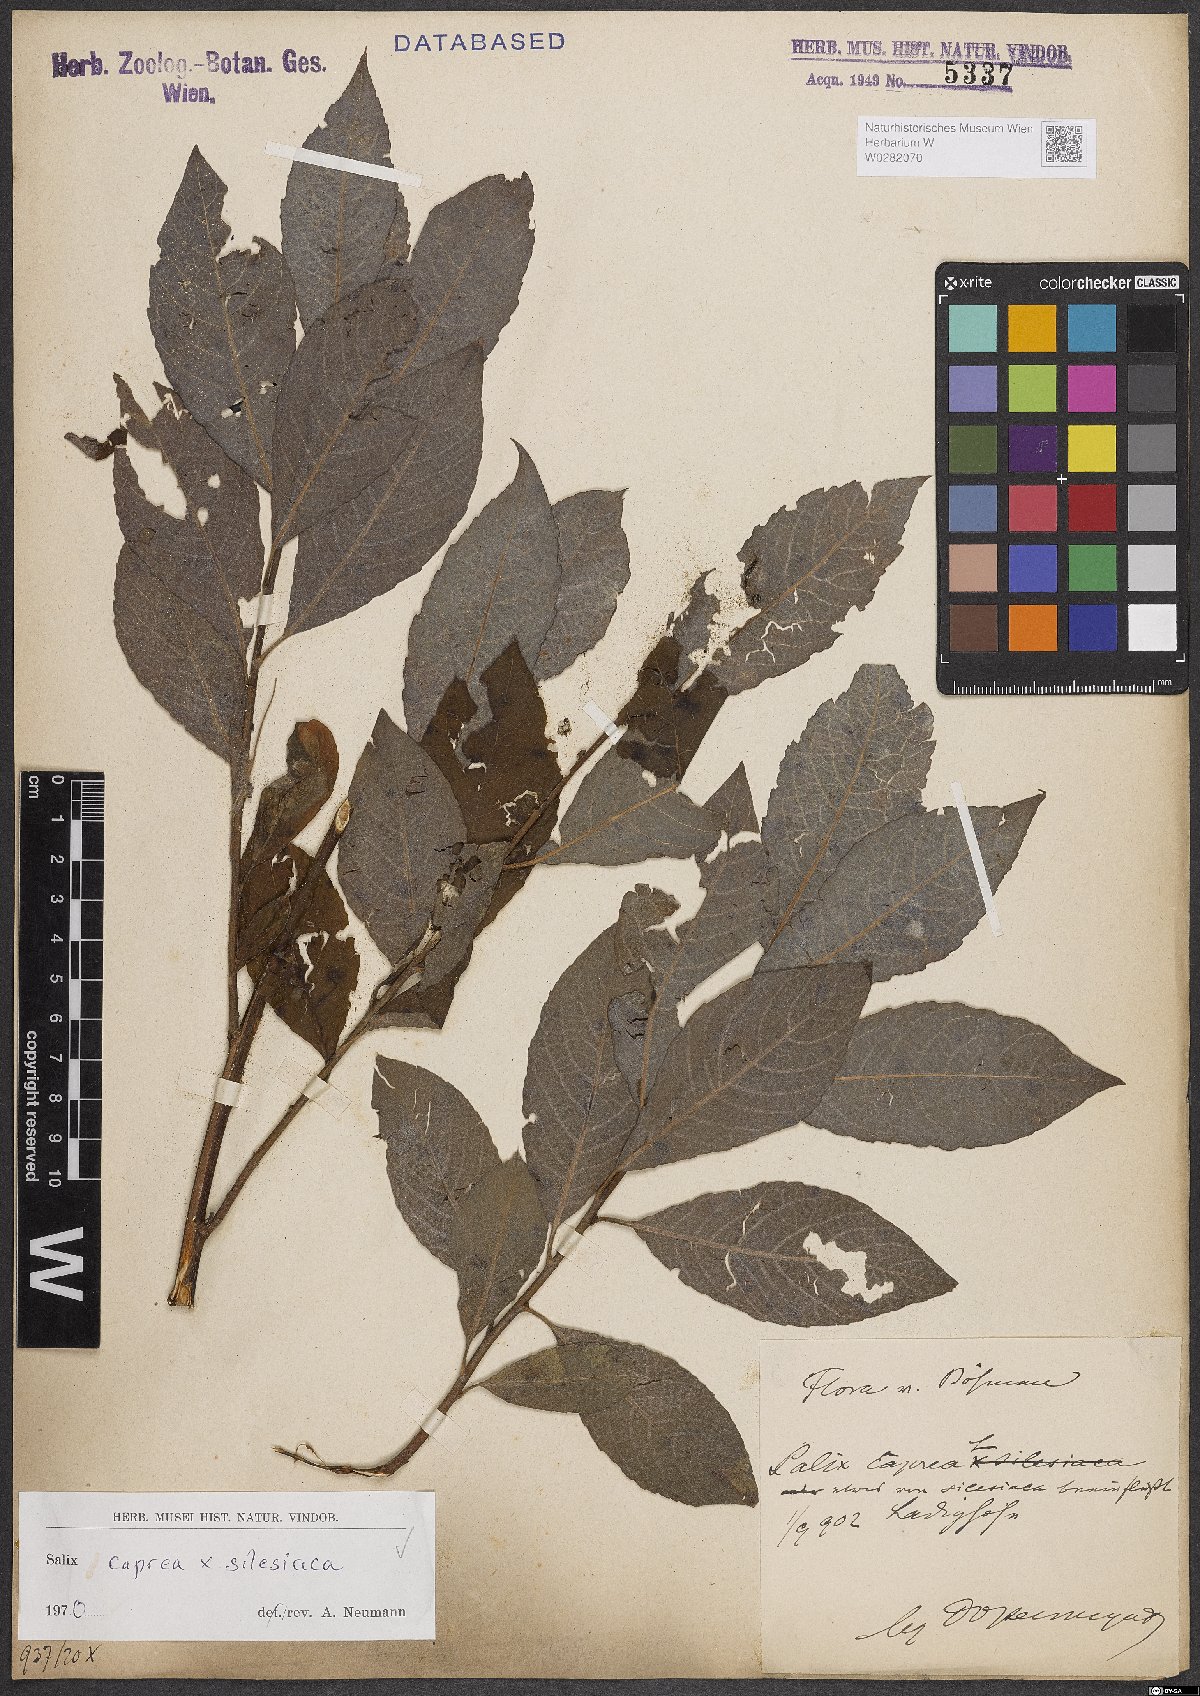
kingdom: Plantae
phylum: Tracheophyta
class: Magnoliopsida
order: Malpighiales
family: Salicaceae
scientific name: Salicaceae
